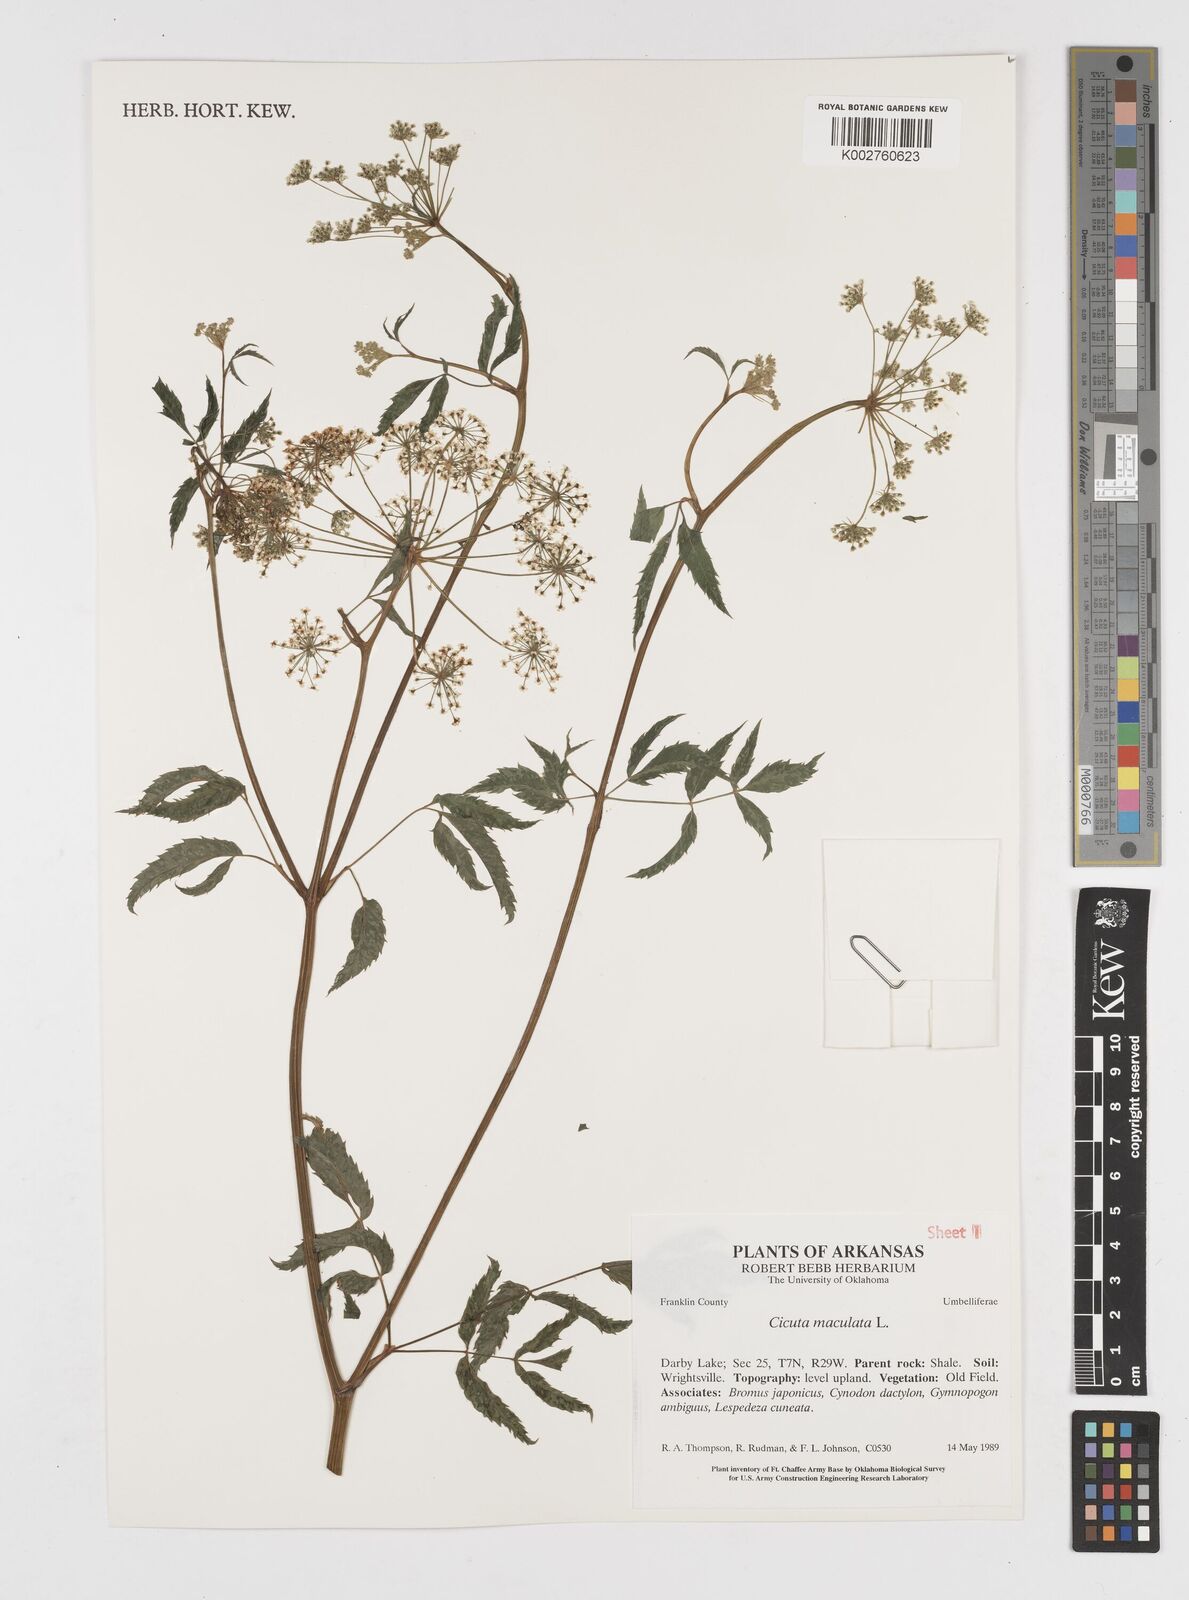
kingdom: Plantae
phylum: Tracheophyta
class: Magnoliopsida
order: Apiales
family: Apiaceae
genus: Cicuta
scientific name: Cicuta maculata
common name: Spotted cowbane
